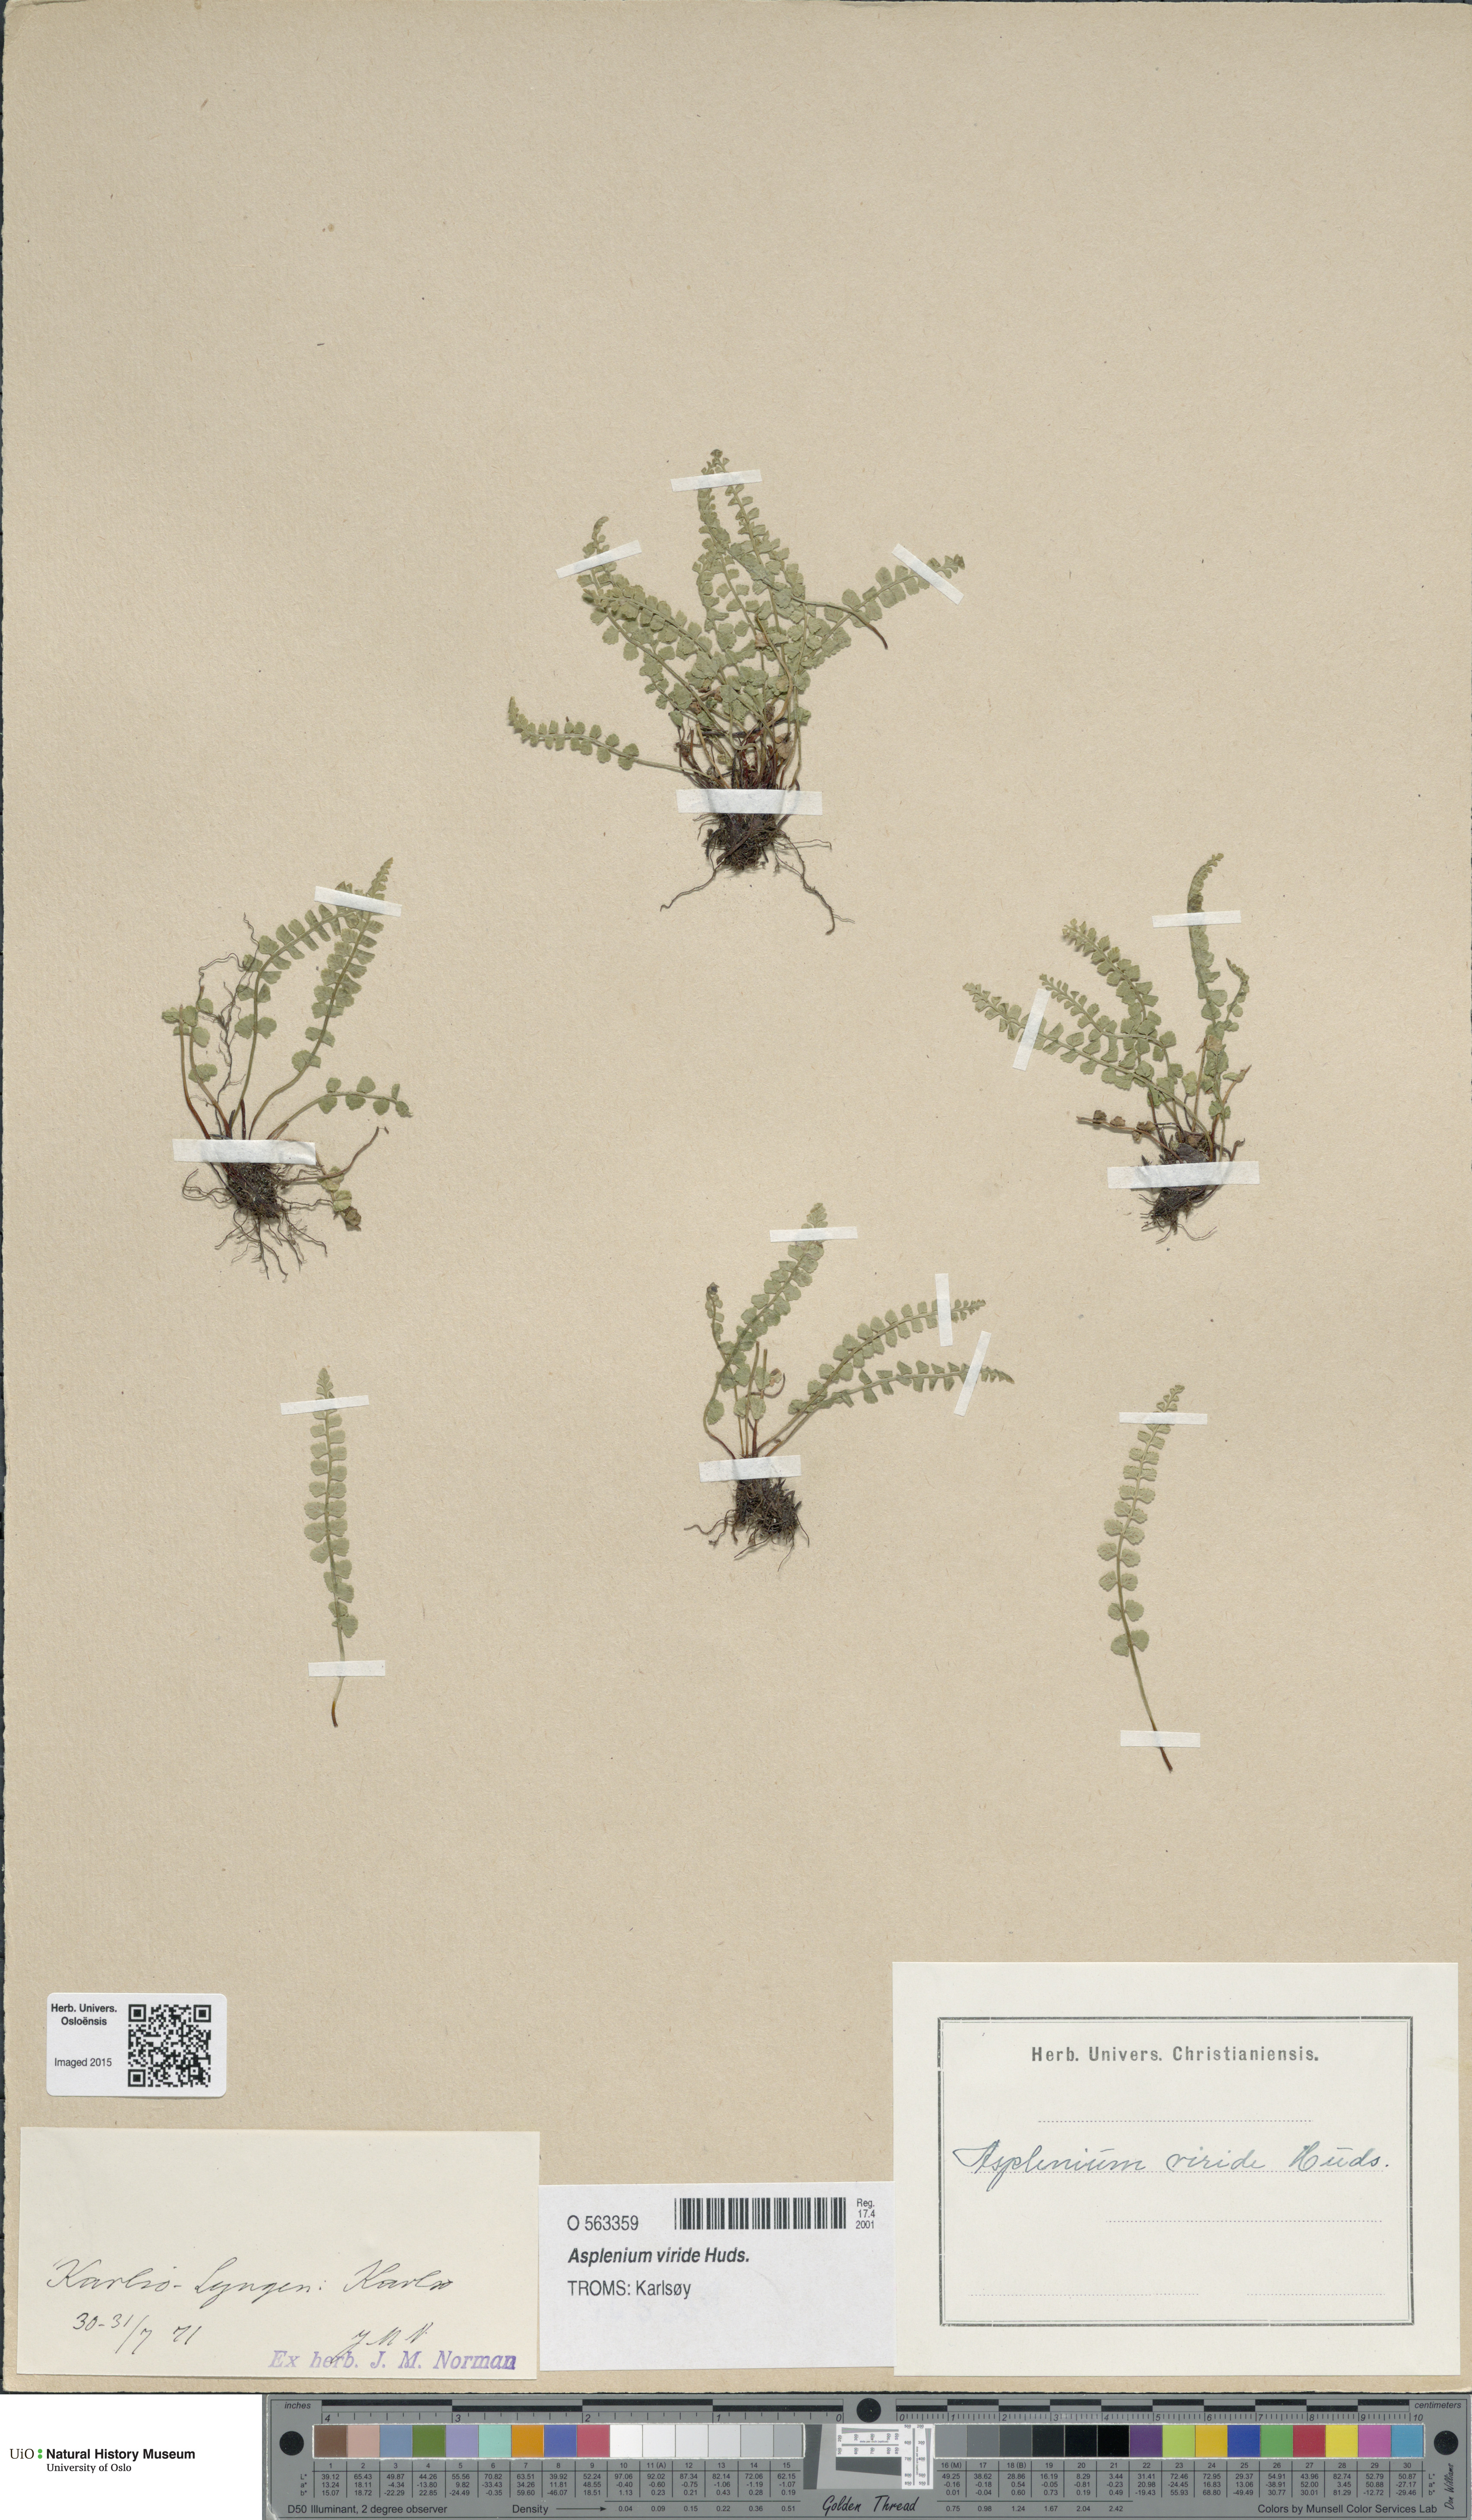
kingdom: Plantae
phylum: Tracheophyta
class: Polypodiopsida
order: Polypodiales
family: Aspleniaceae
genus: Asplenium
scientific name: Asplenium viride
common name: Green spleenwort
